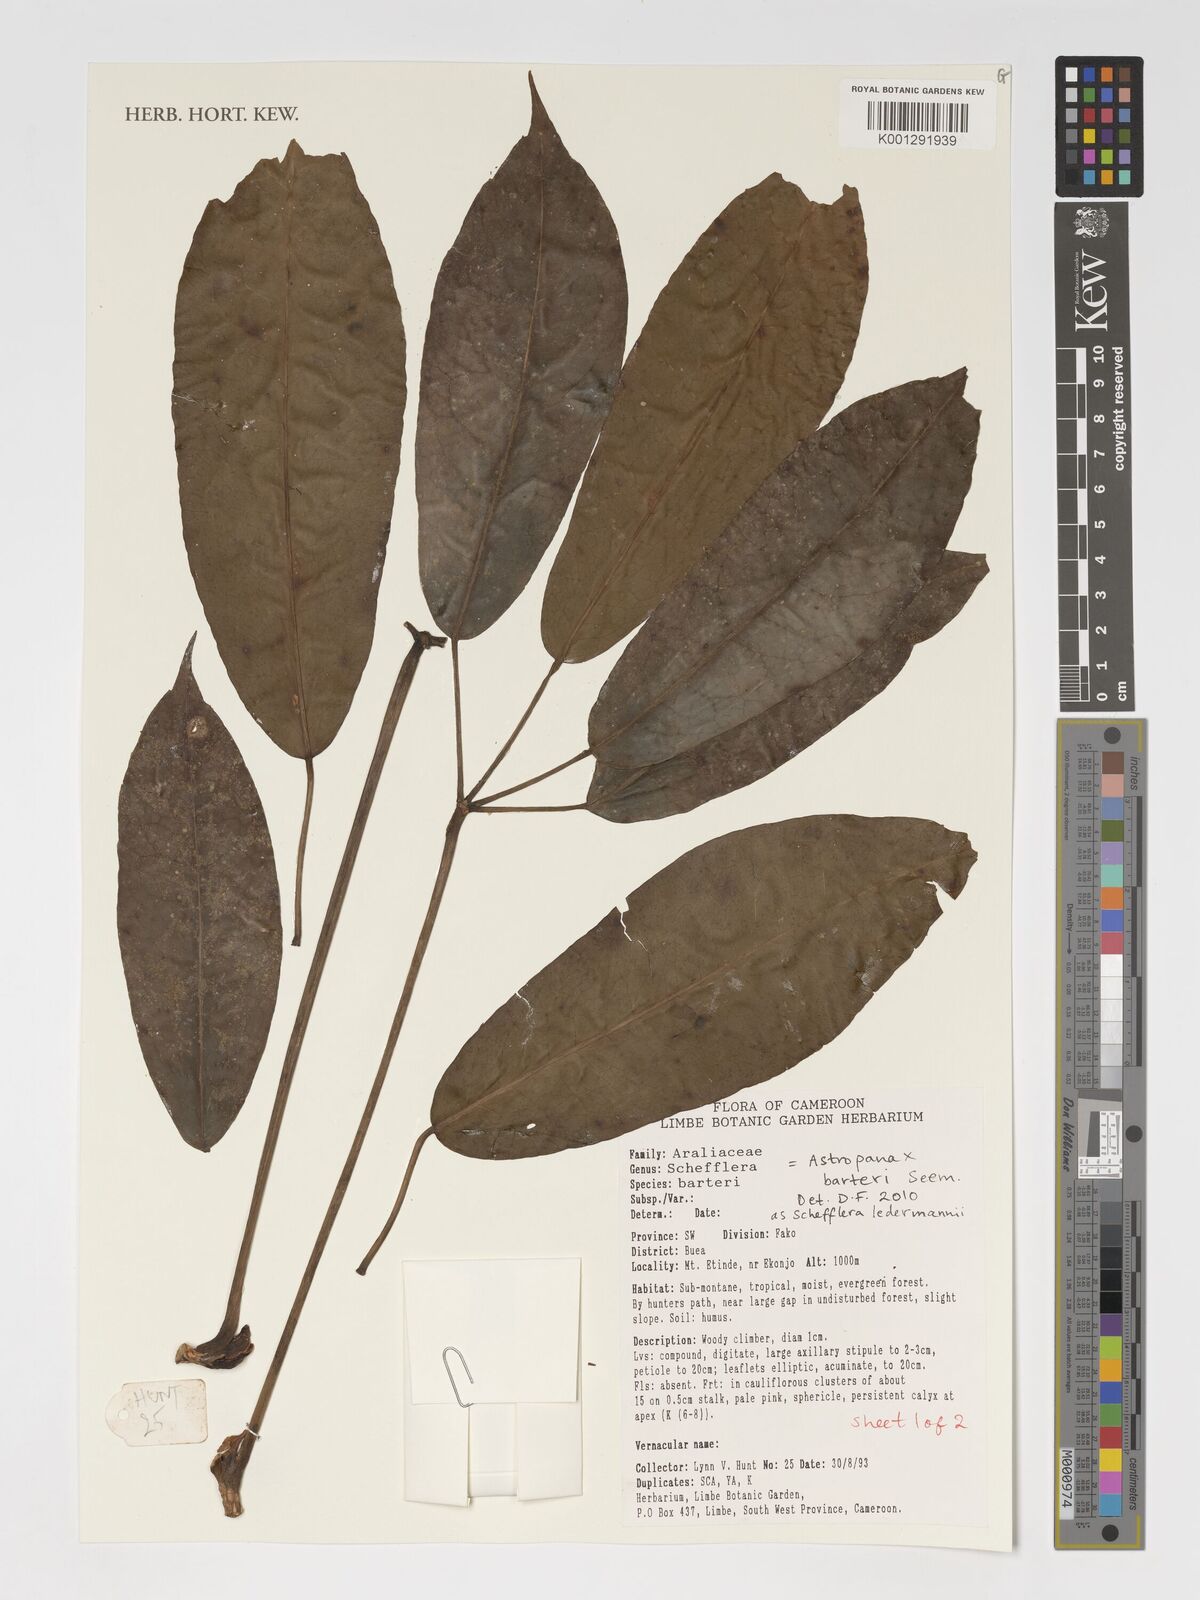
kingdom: Plantae
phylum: Tracheophyta
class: Magnoliopsida
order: Apiales
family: Araliaceae
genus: Astropanax
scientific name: Astropanax barteri
